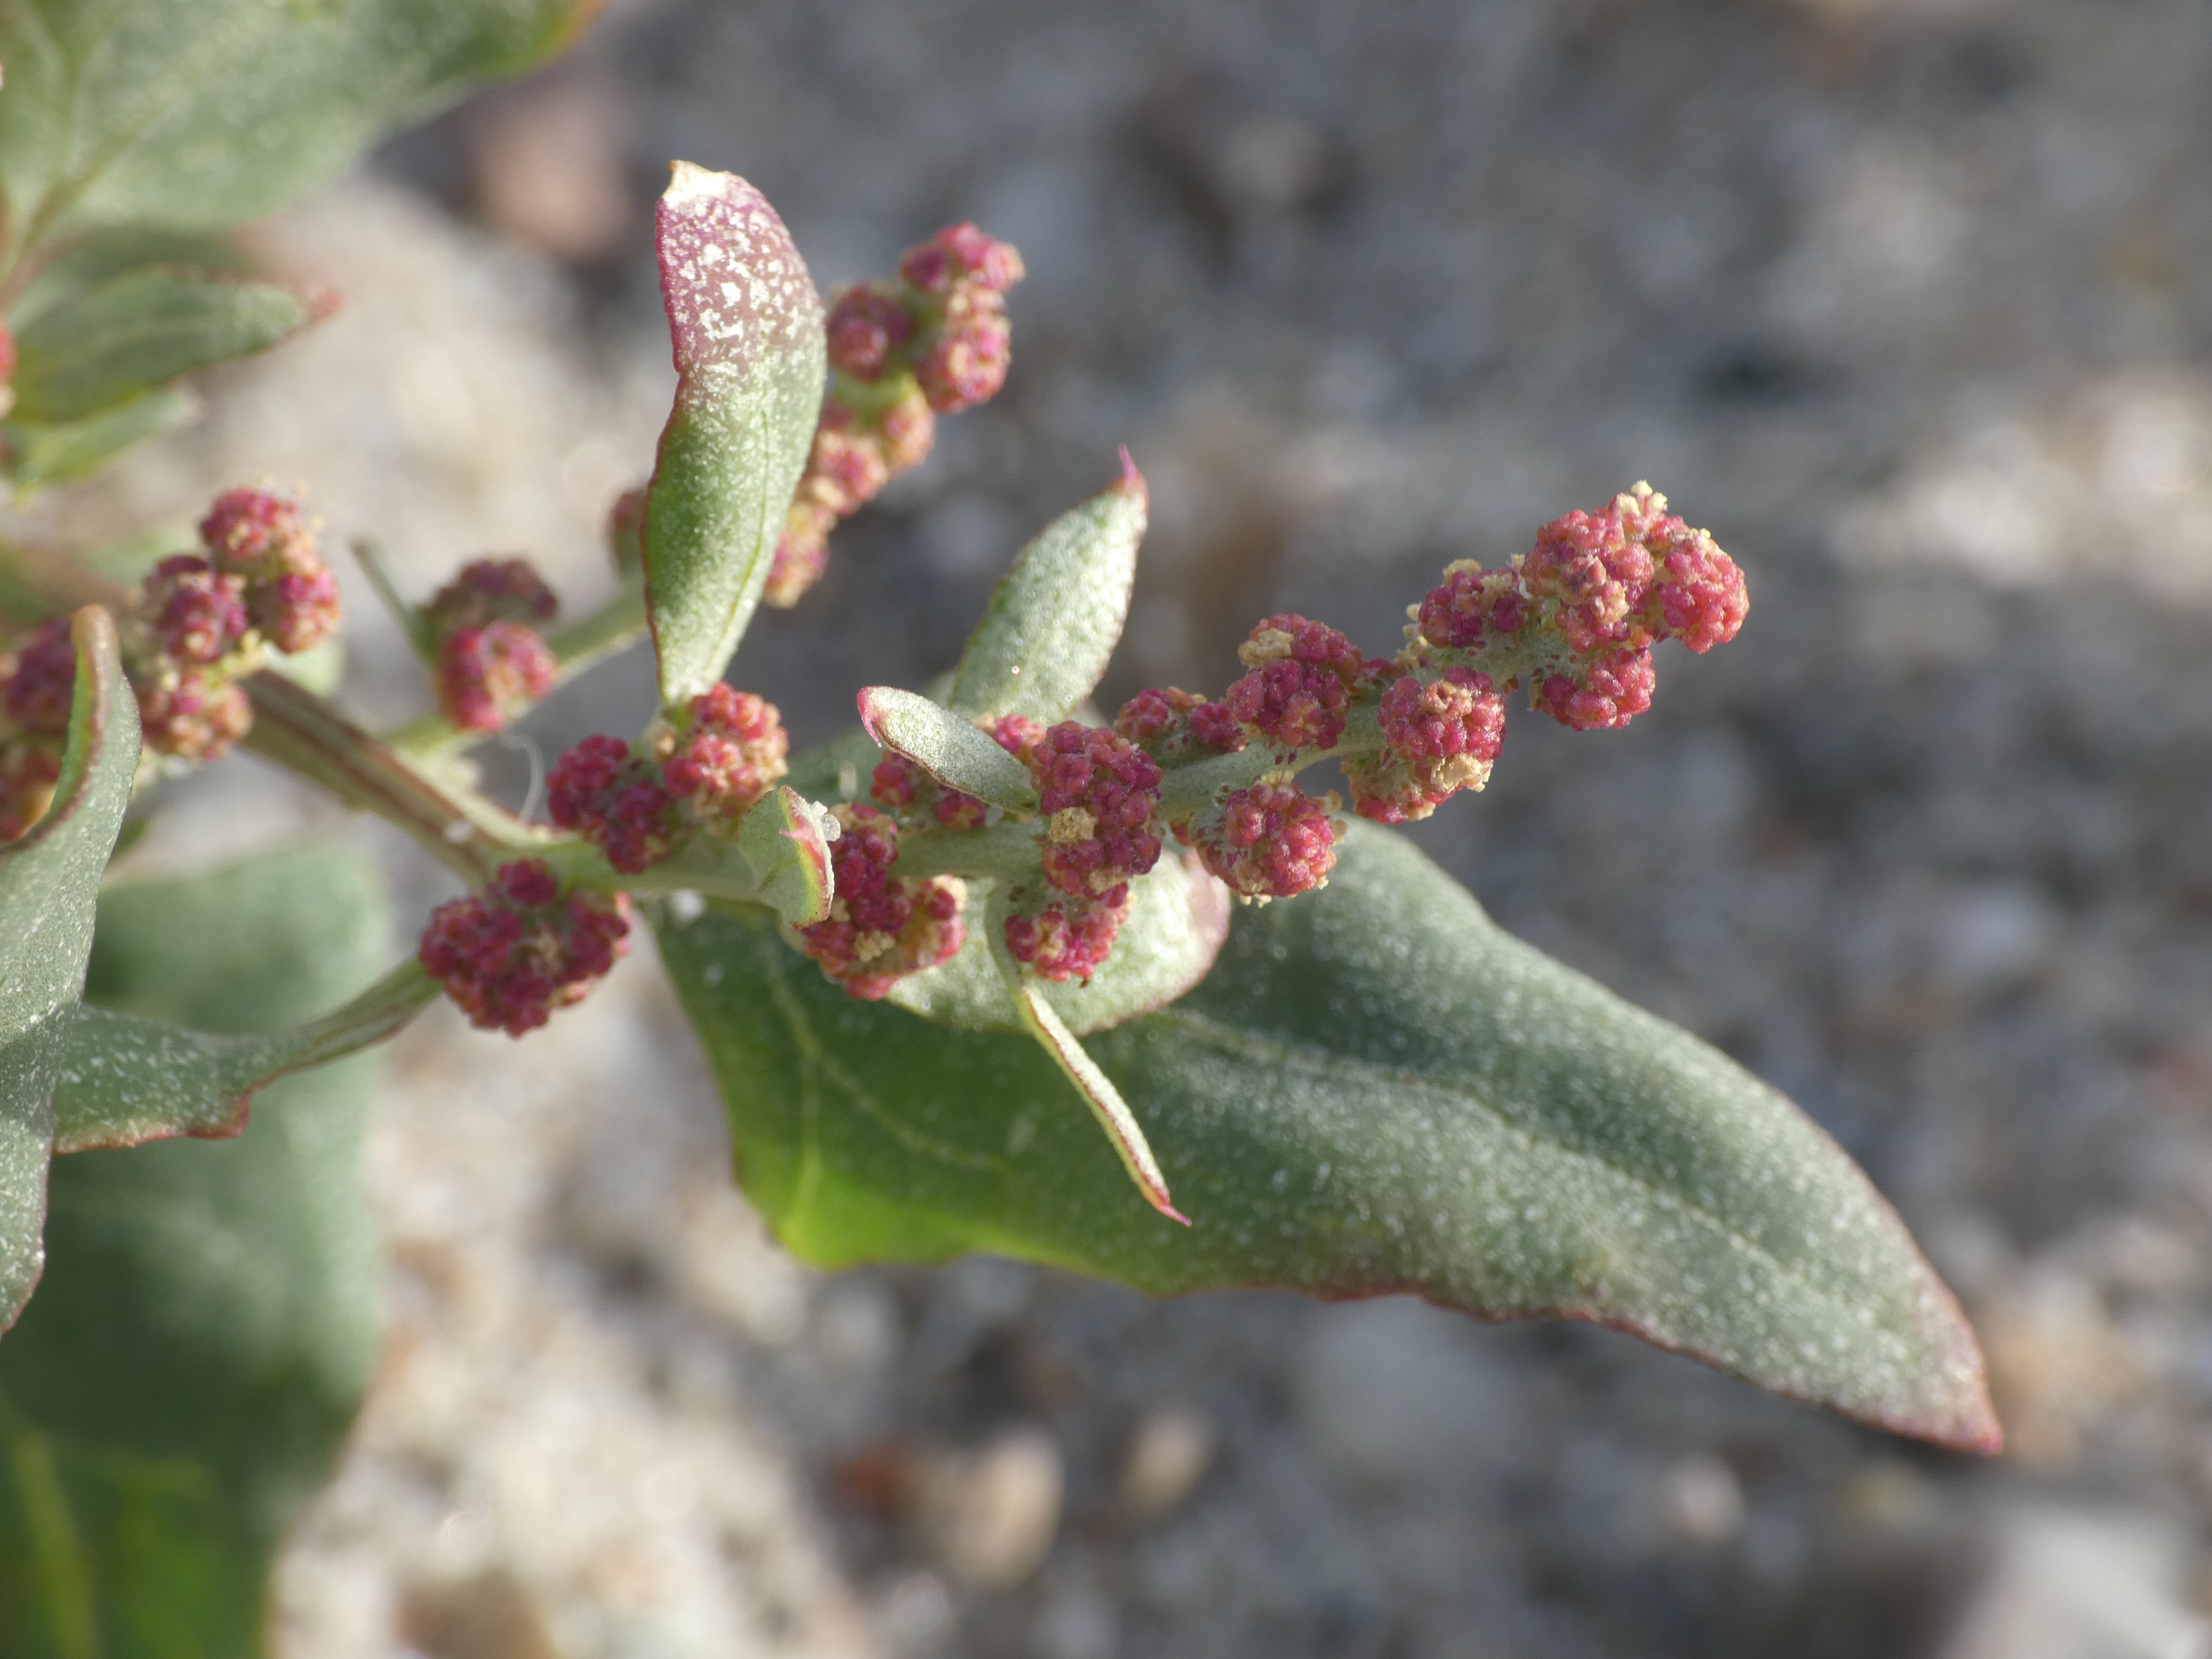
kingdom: Plantae
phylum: Tracheophyta
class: Magnoliopsida
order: Caryophyllales
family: Amaranthaceae
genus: Atriplex
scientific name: Atriplex prostrata
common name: Spyd-mælde
